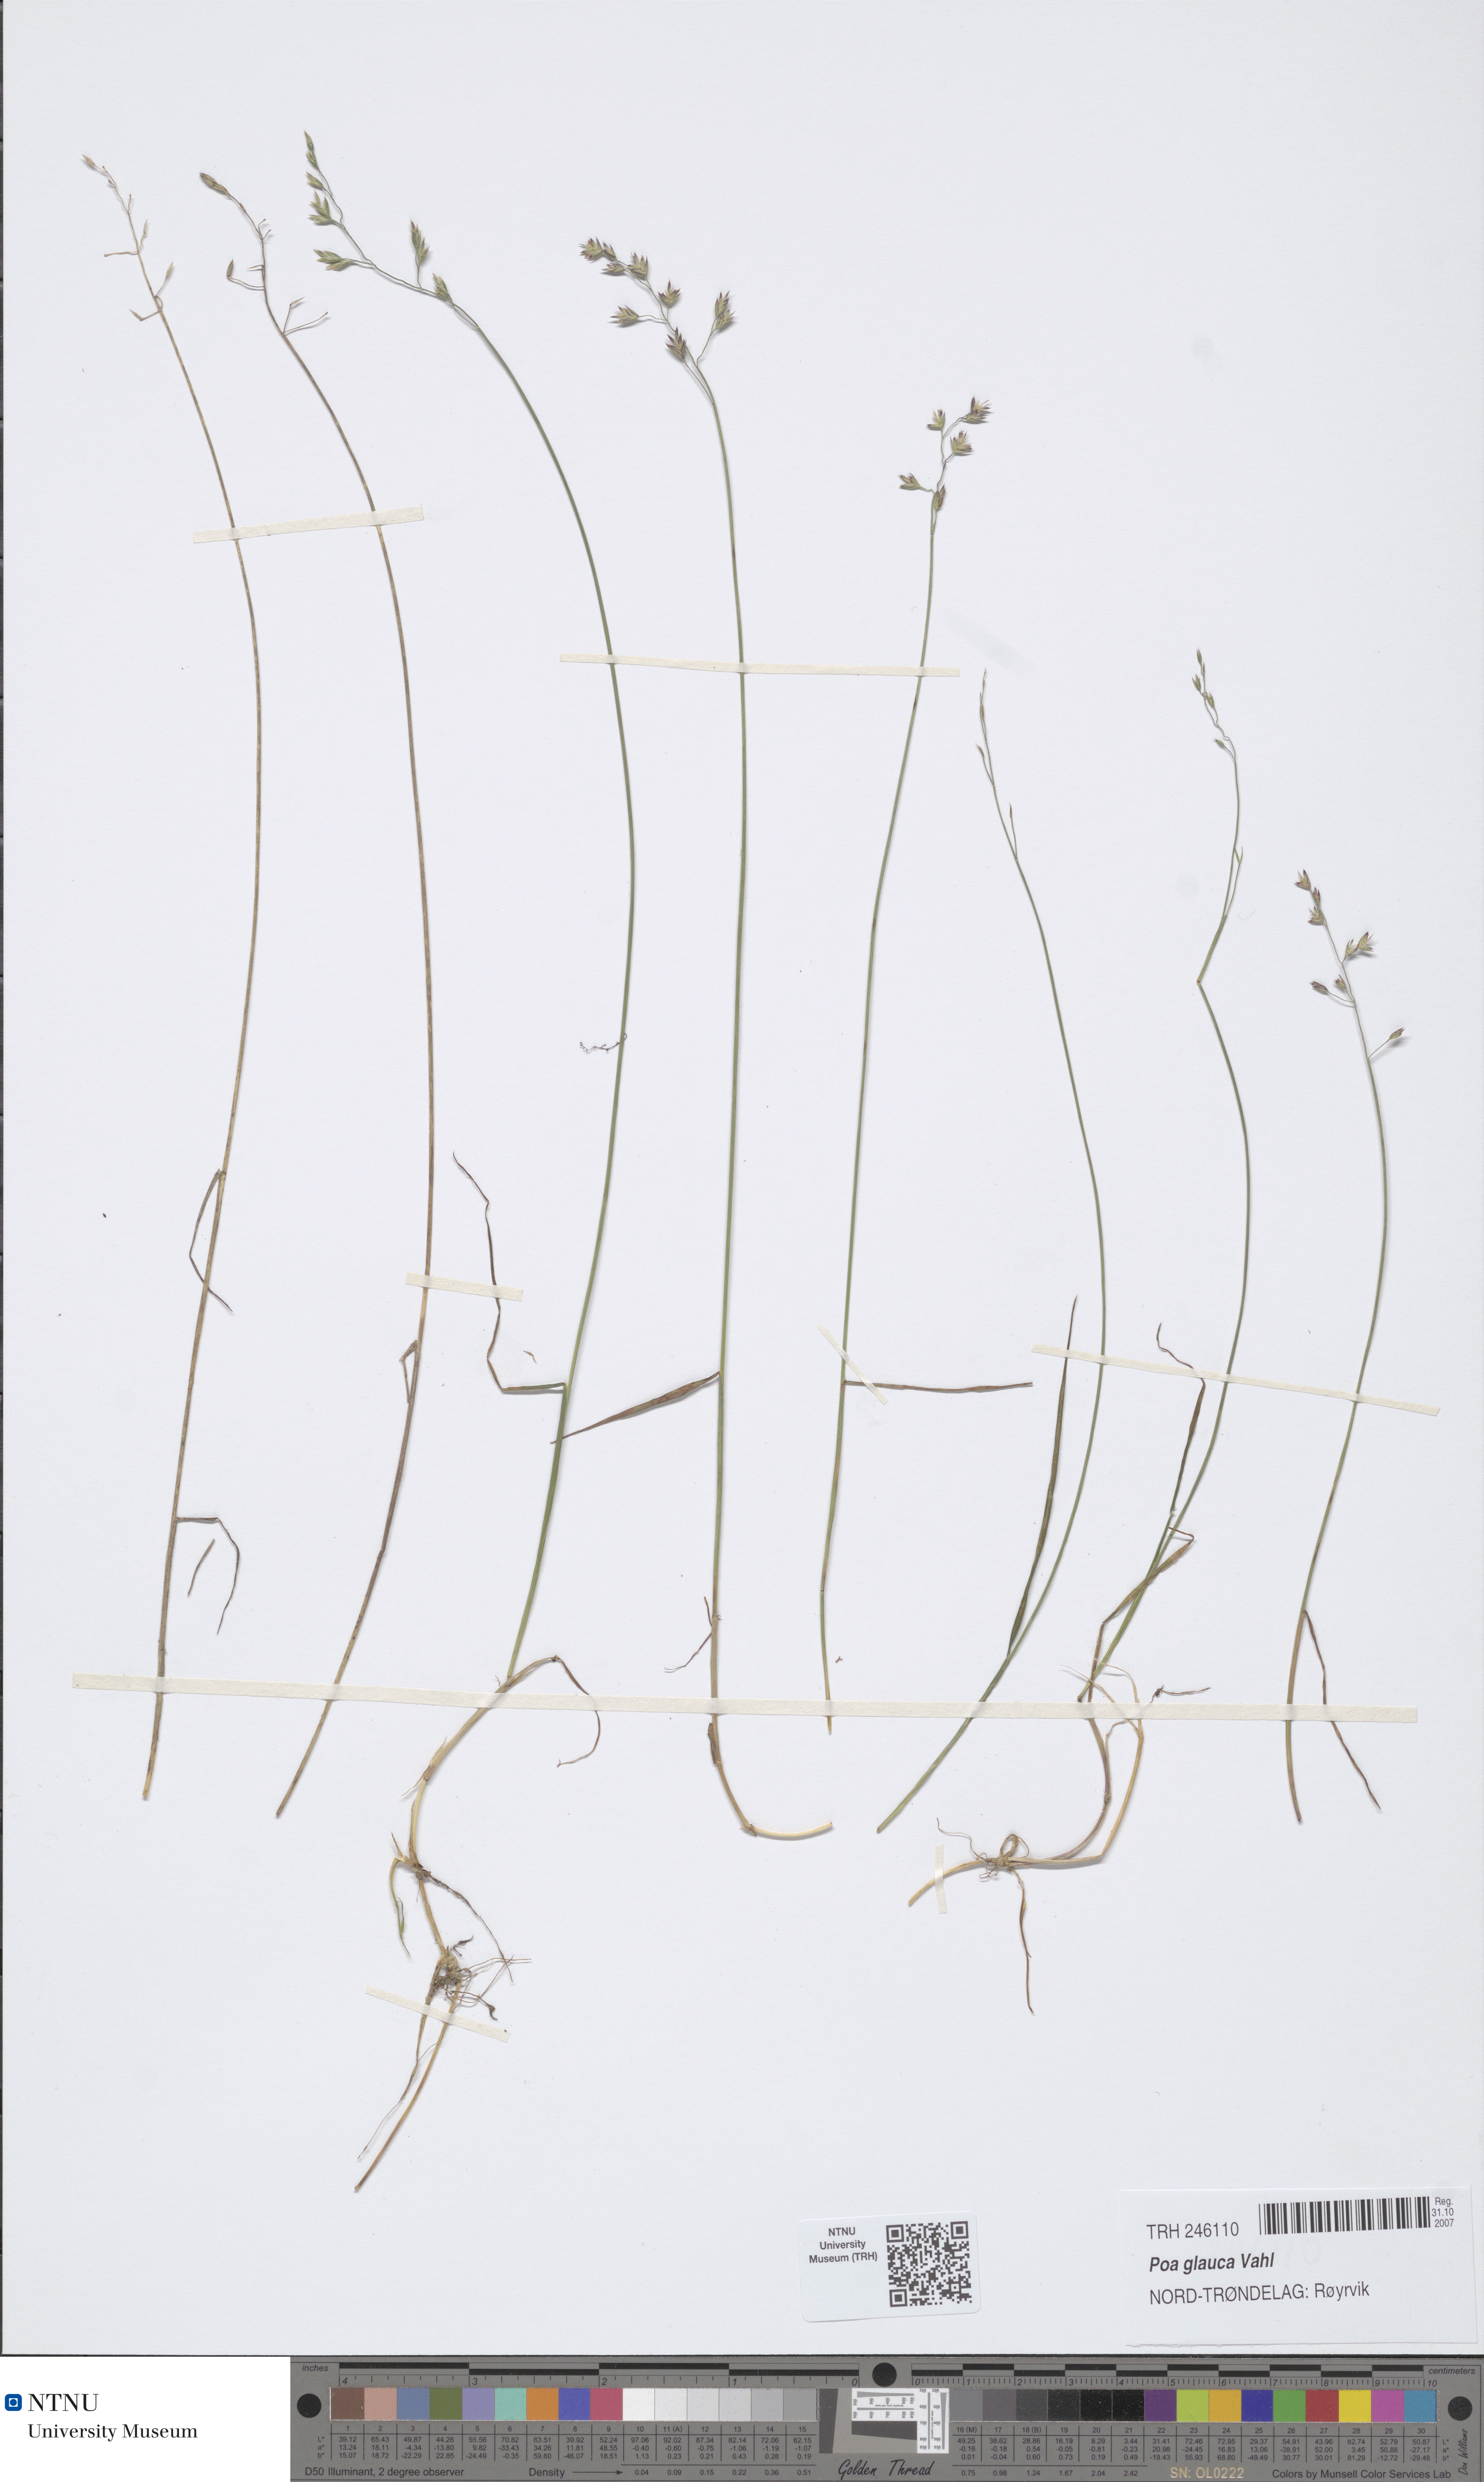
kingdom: Plantae
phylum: Tracheophyta
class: Liliopsida
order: Poales
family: Poaceae
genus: Poa
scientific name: Poa glauca
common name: Glaucous bluegrass
